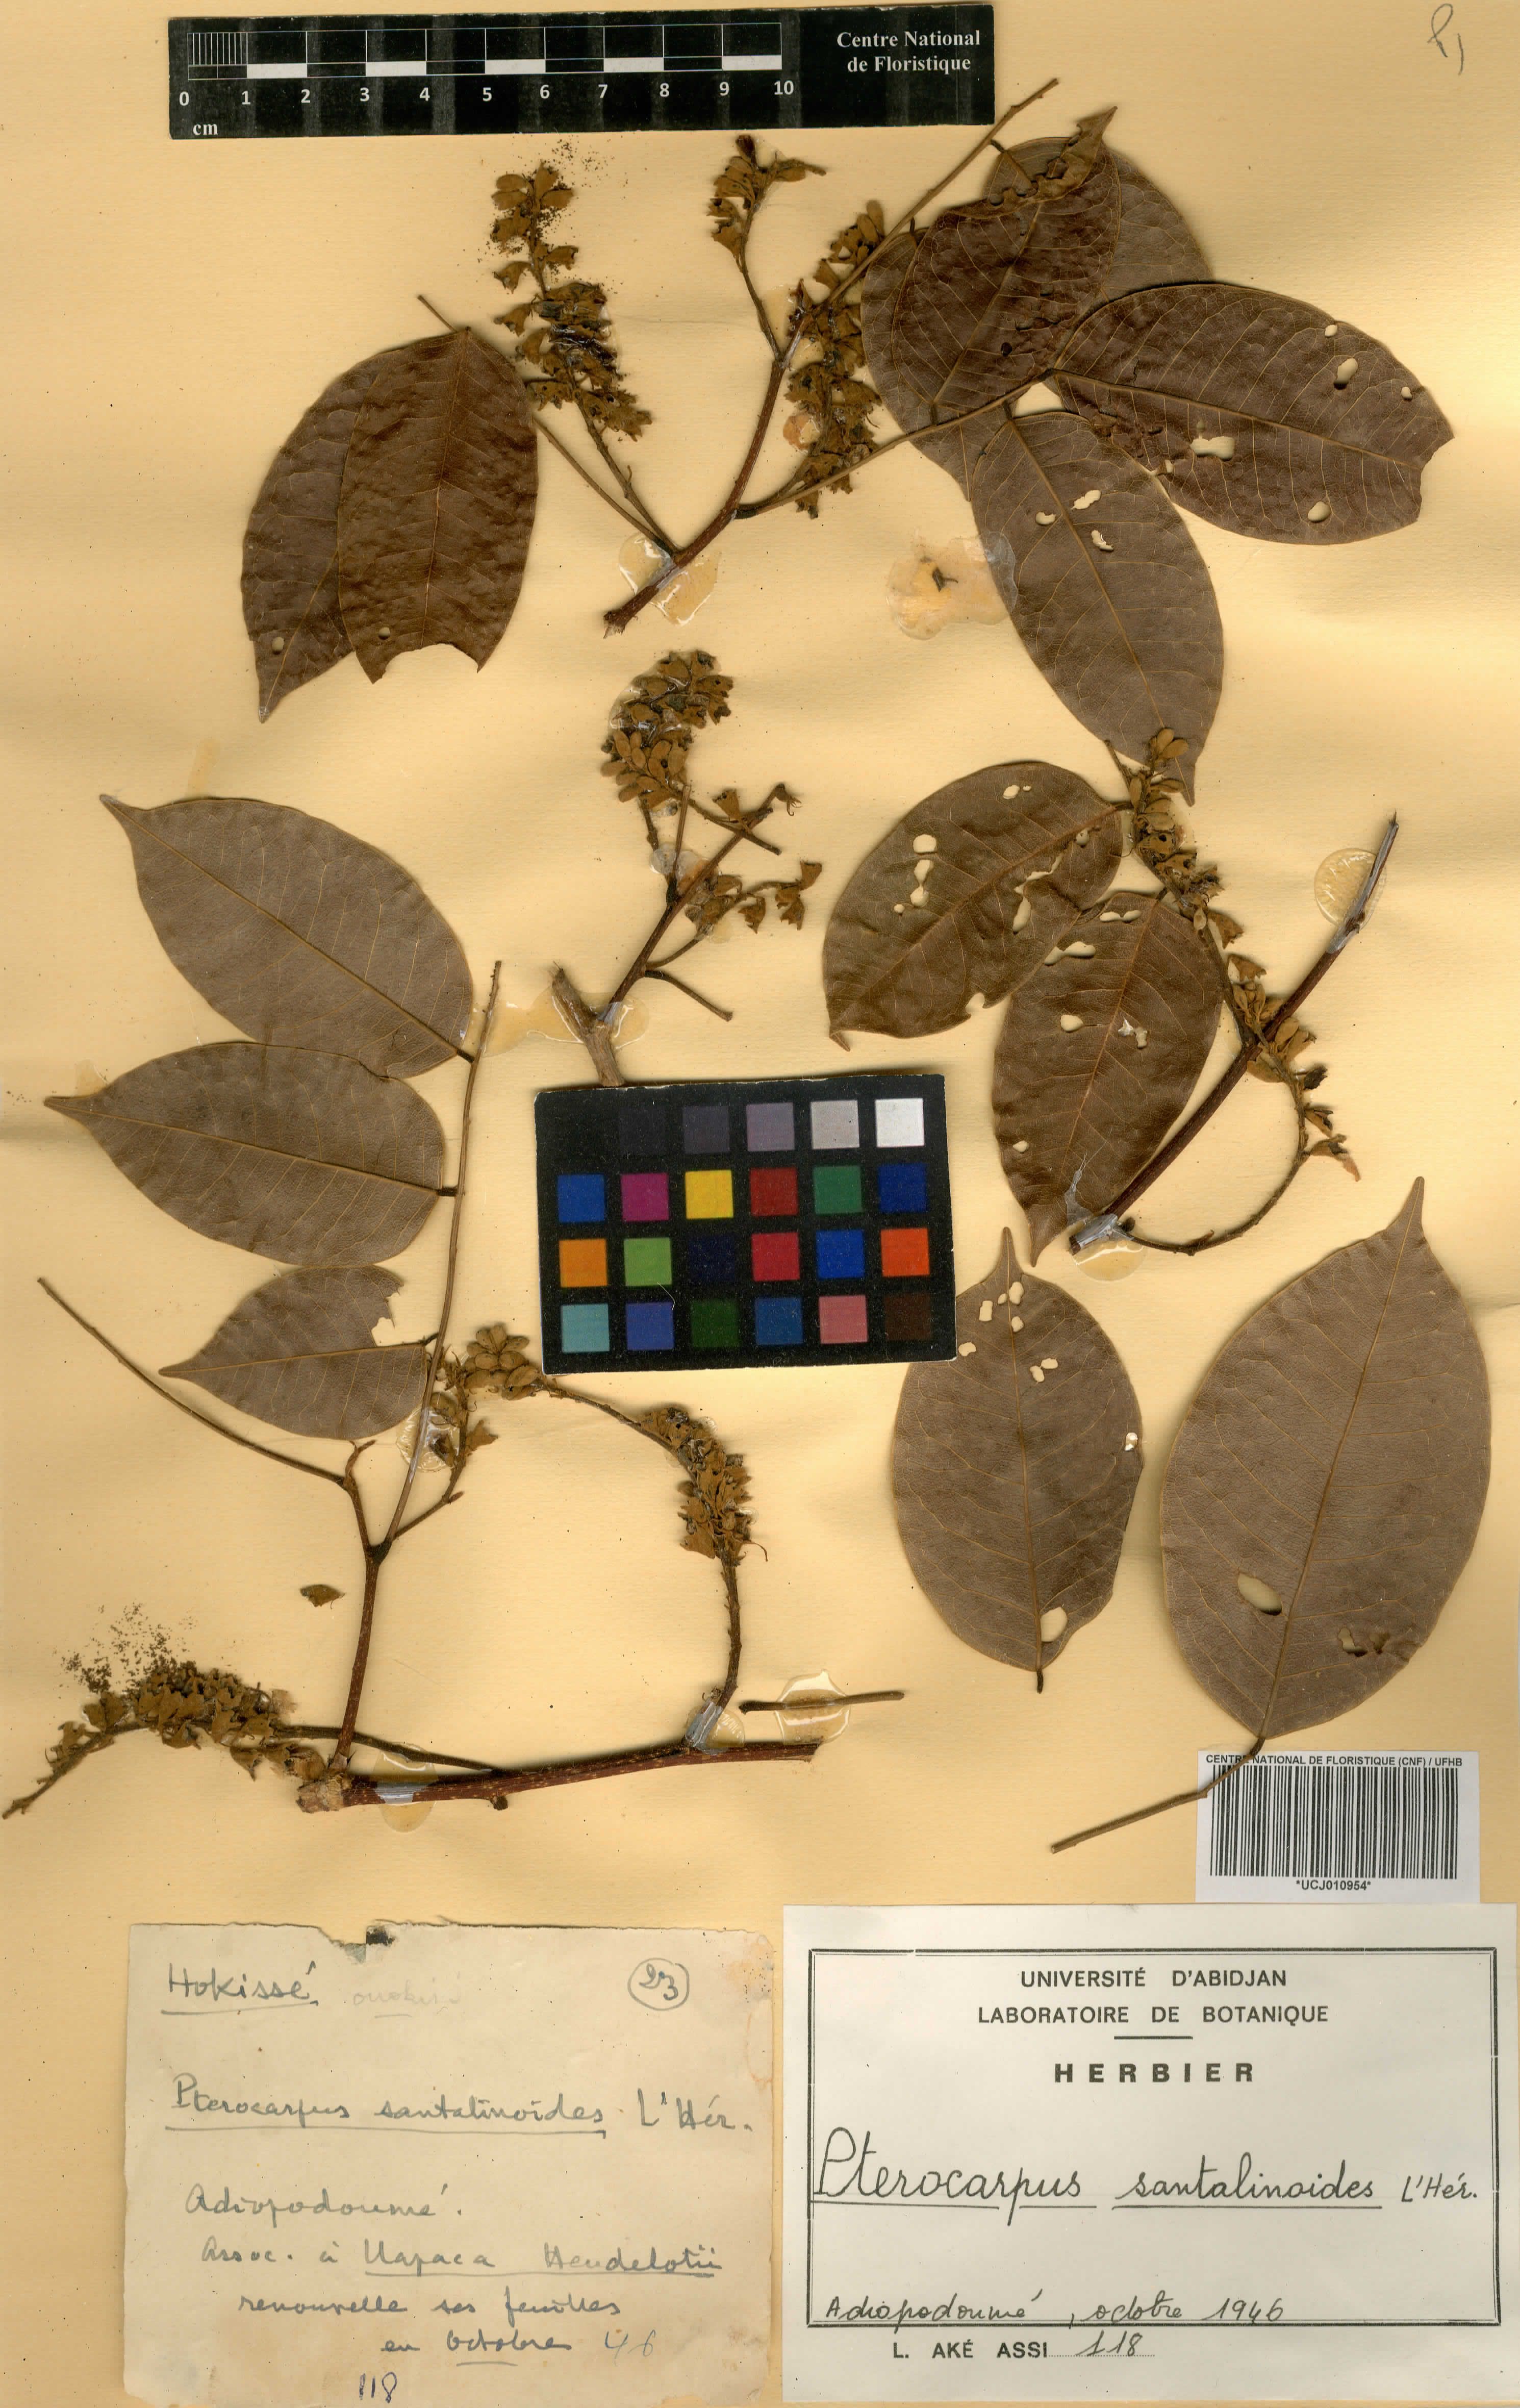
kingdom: Plantae
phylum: Tracheophyta
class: Magnoliopsida
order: Fabales
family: Fabaceae
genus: Pterocarpus
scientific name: Pterocarpus santalinoides
